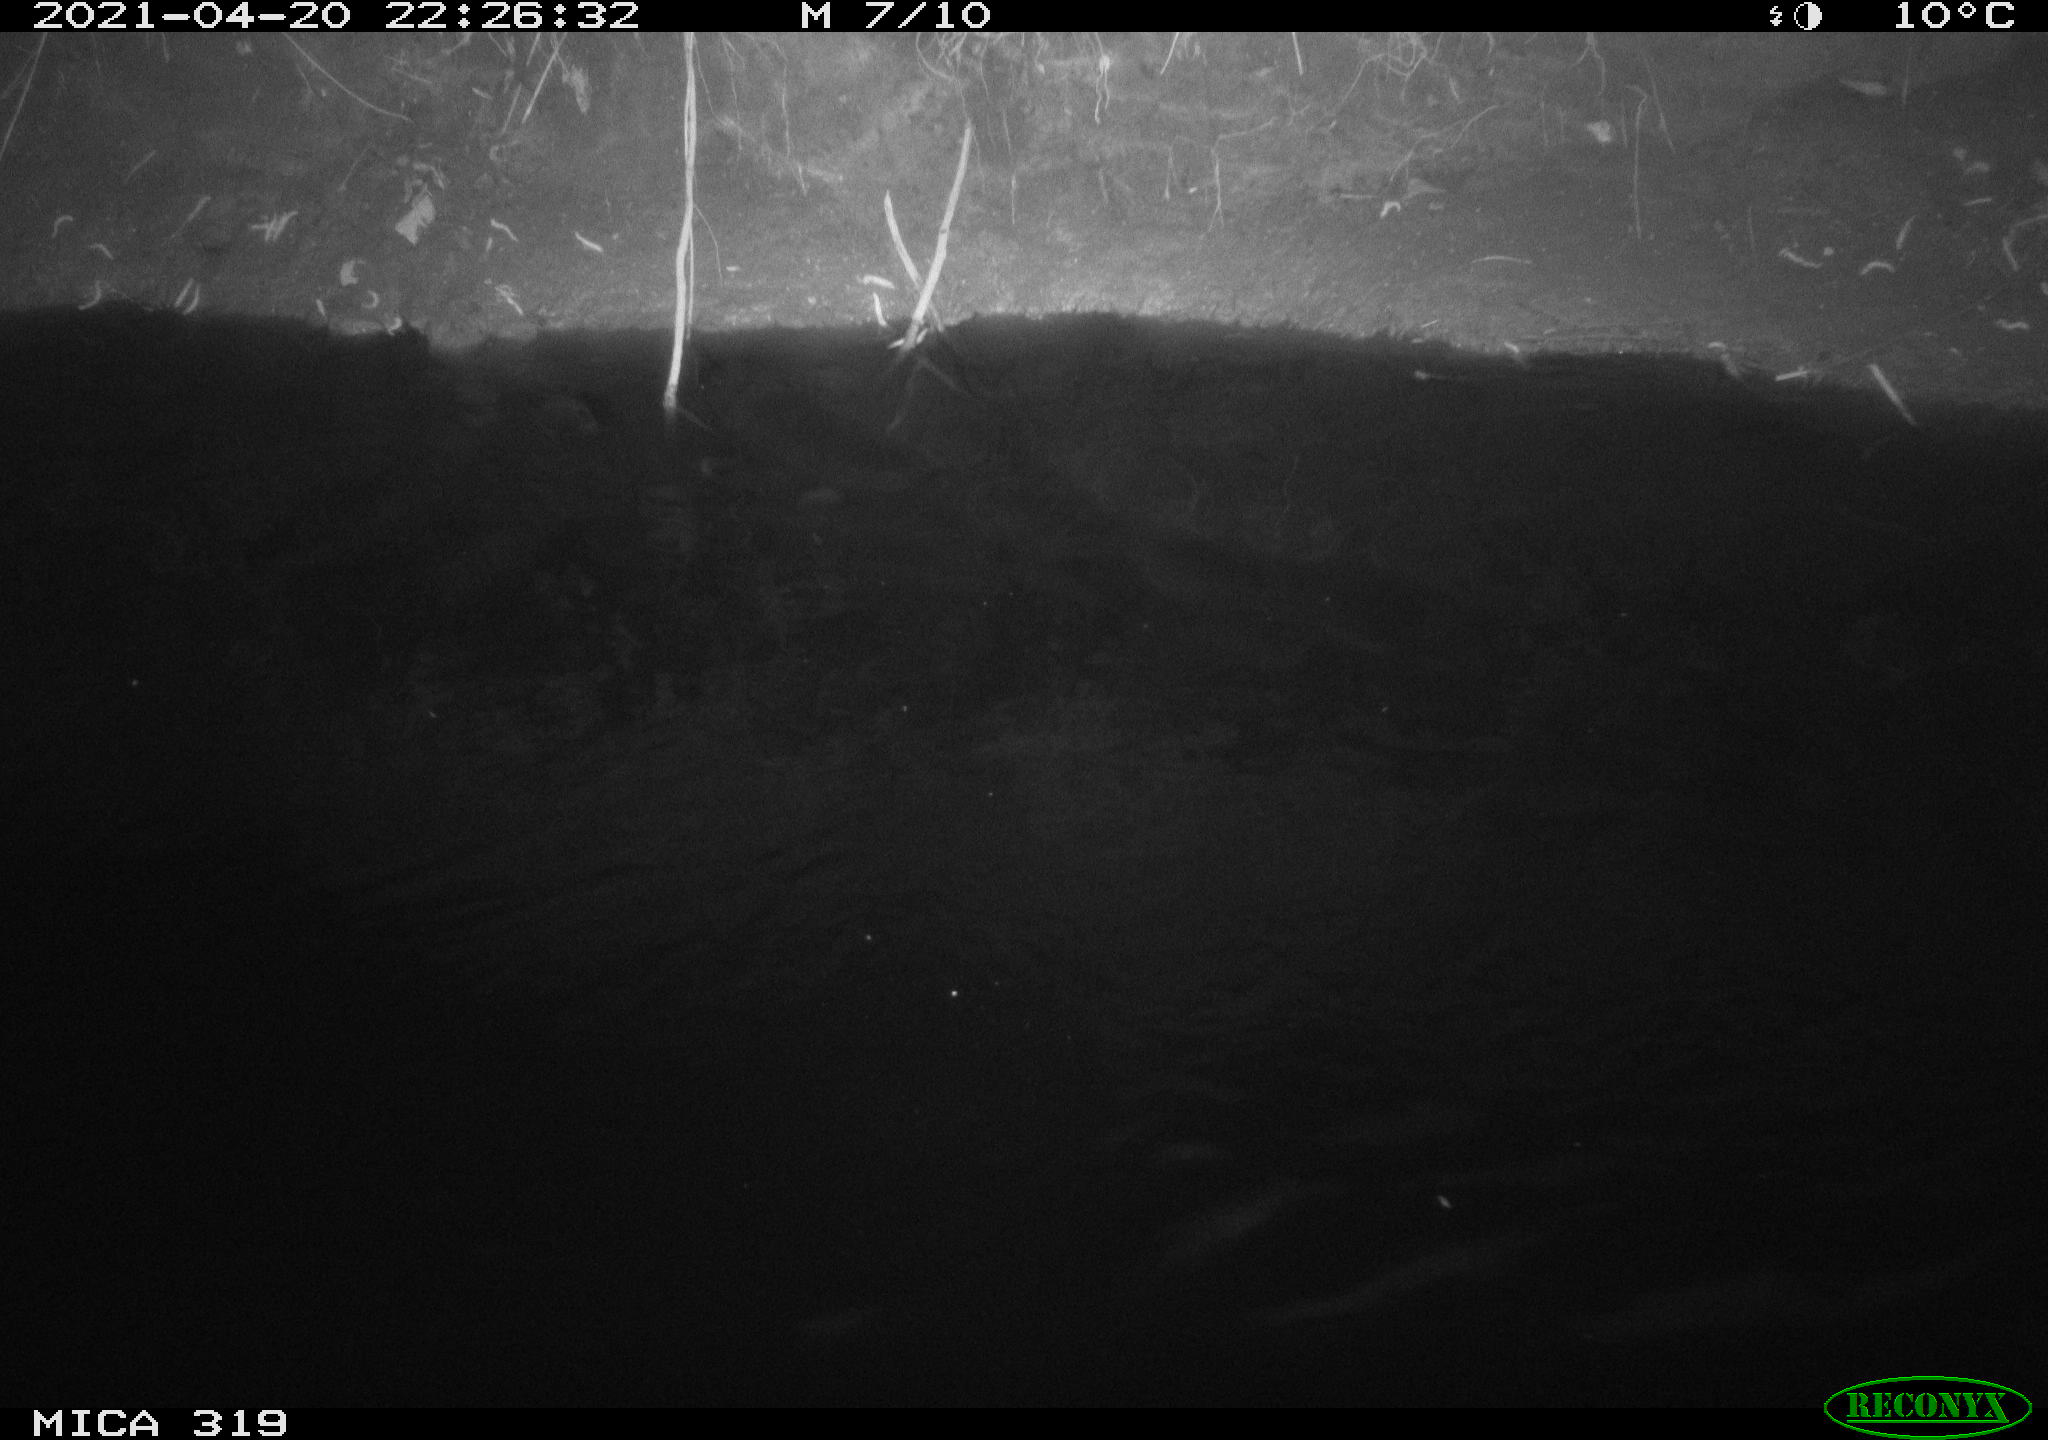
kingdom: Animalia
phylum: Chordata
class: Aves
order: Anseriformes
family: Anatidae
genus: Anas
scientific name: Anas platyrhynchos
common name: Mallard
